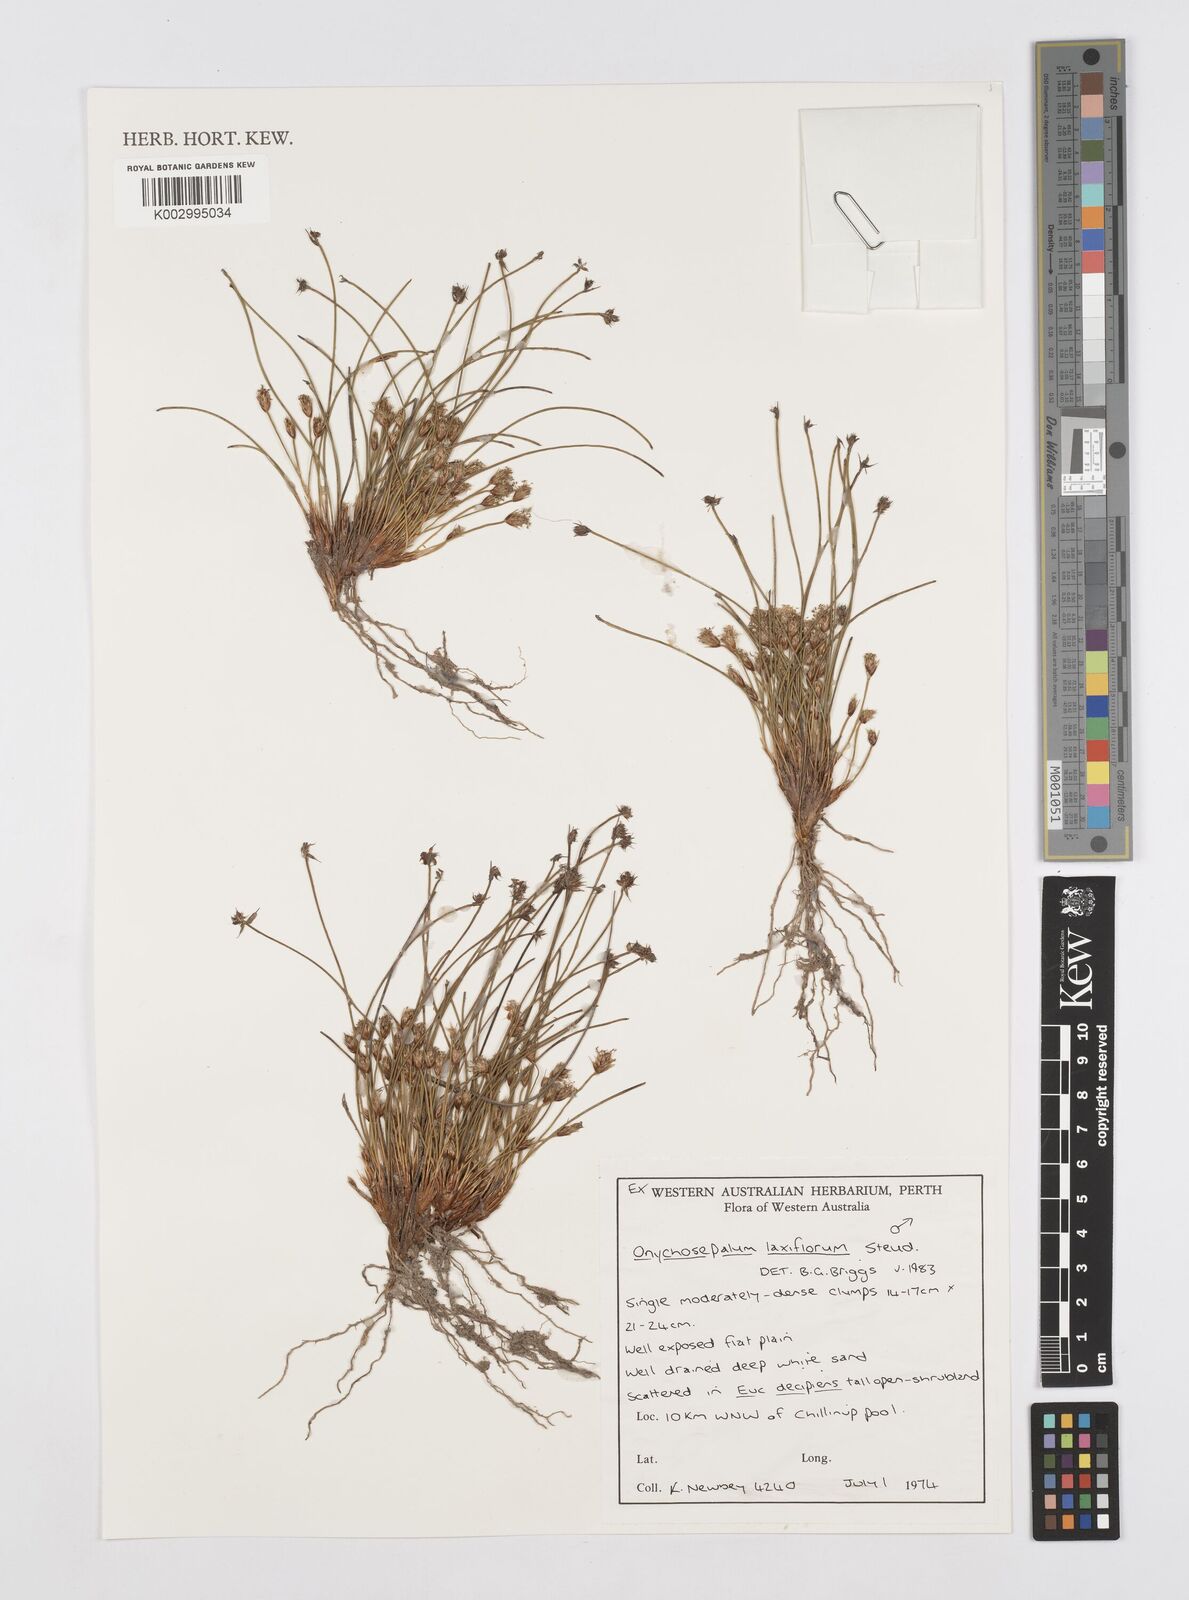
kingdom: Plantae
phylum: Tracheophyta
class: Liliopsida
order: Poales
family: Restionaceae
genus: Desmocladus
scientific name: Desmocladus laxiflorus
